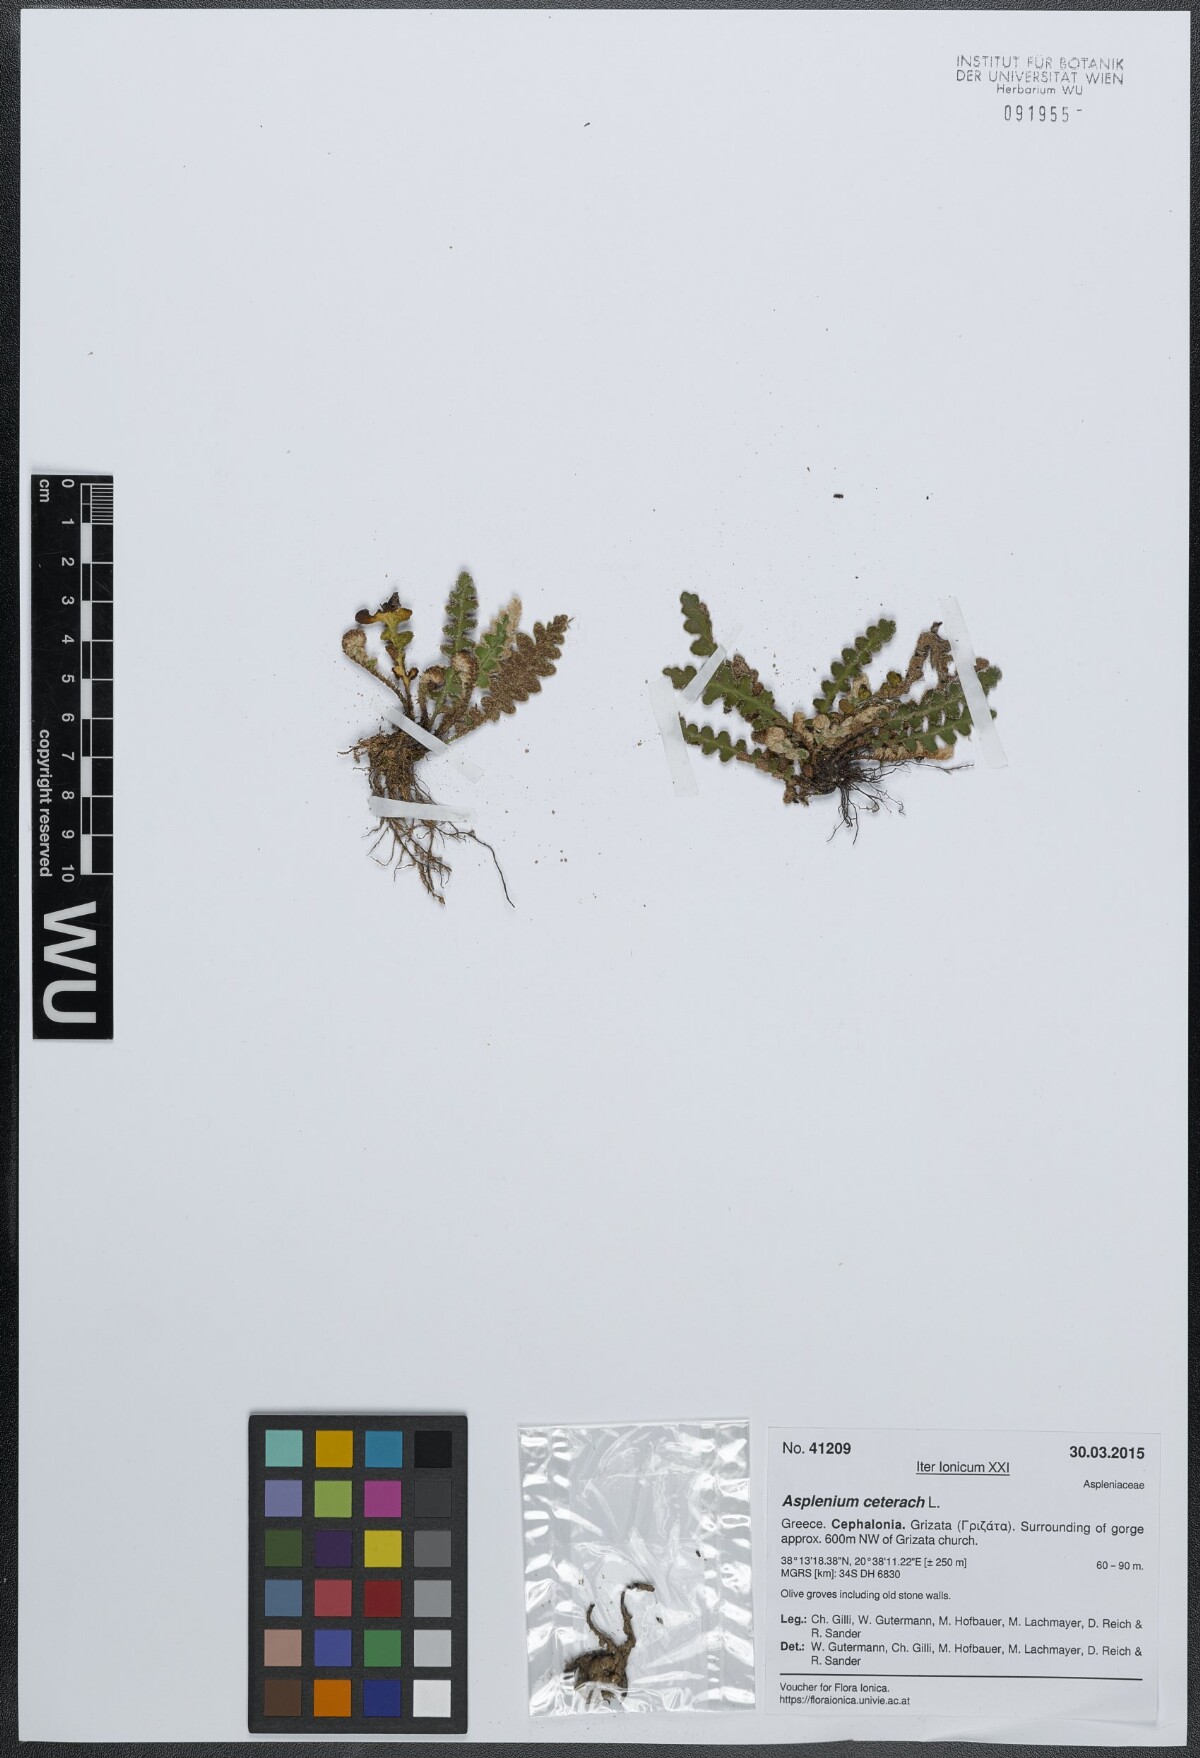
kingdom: Plantae
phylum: Tracheophyta
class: Polypodiopsida
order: Polypodiales
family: Aspleniaceae
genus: Asplenium
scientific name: Asplenium ceterach
